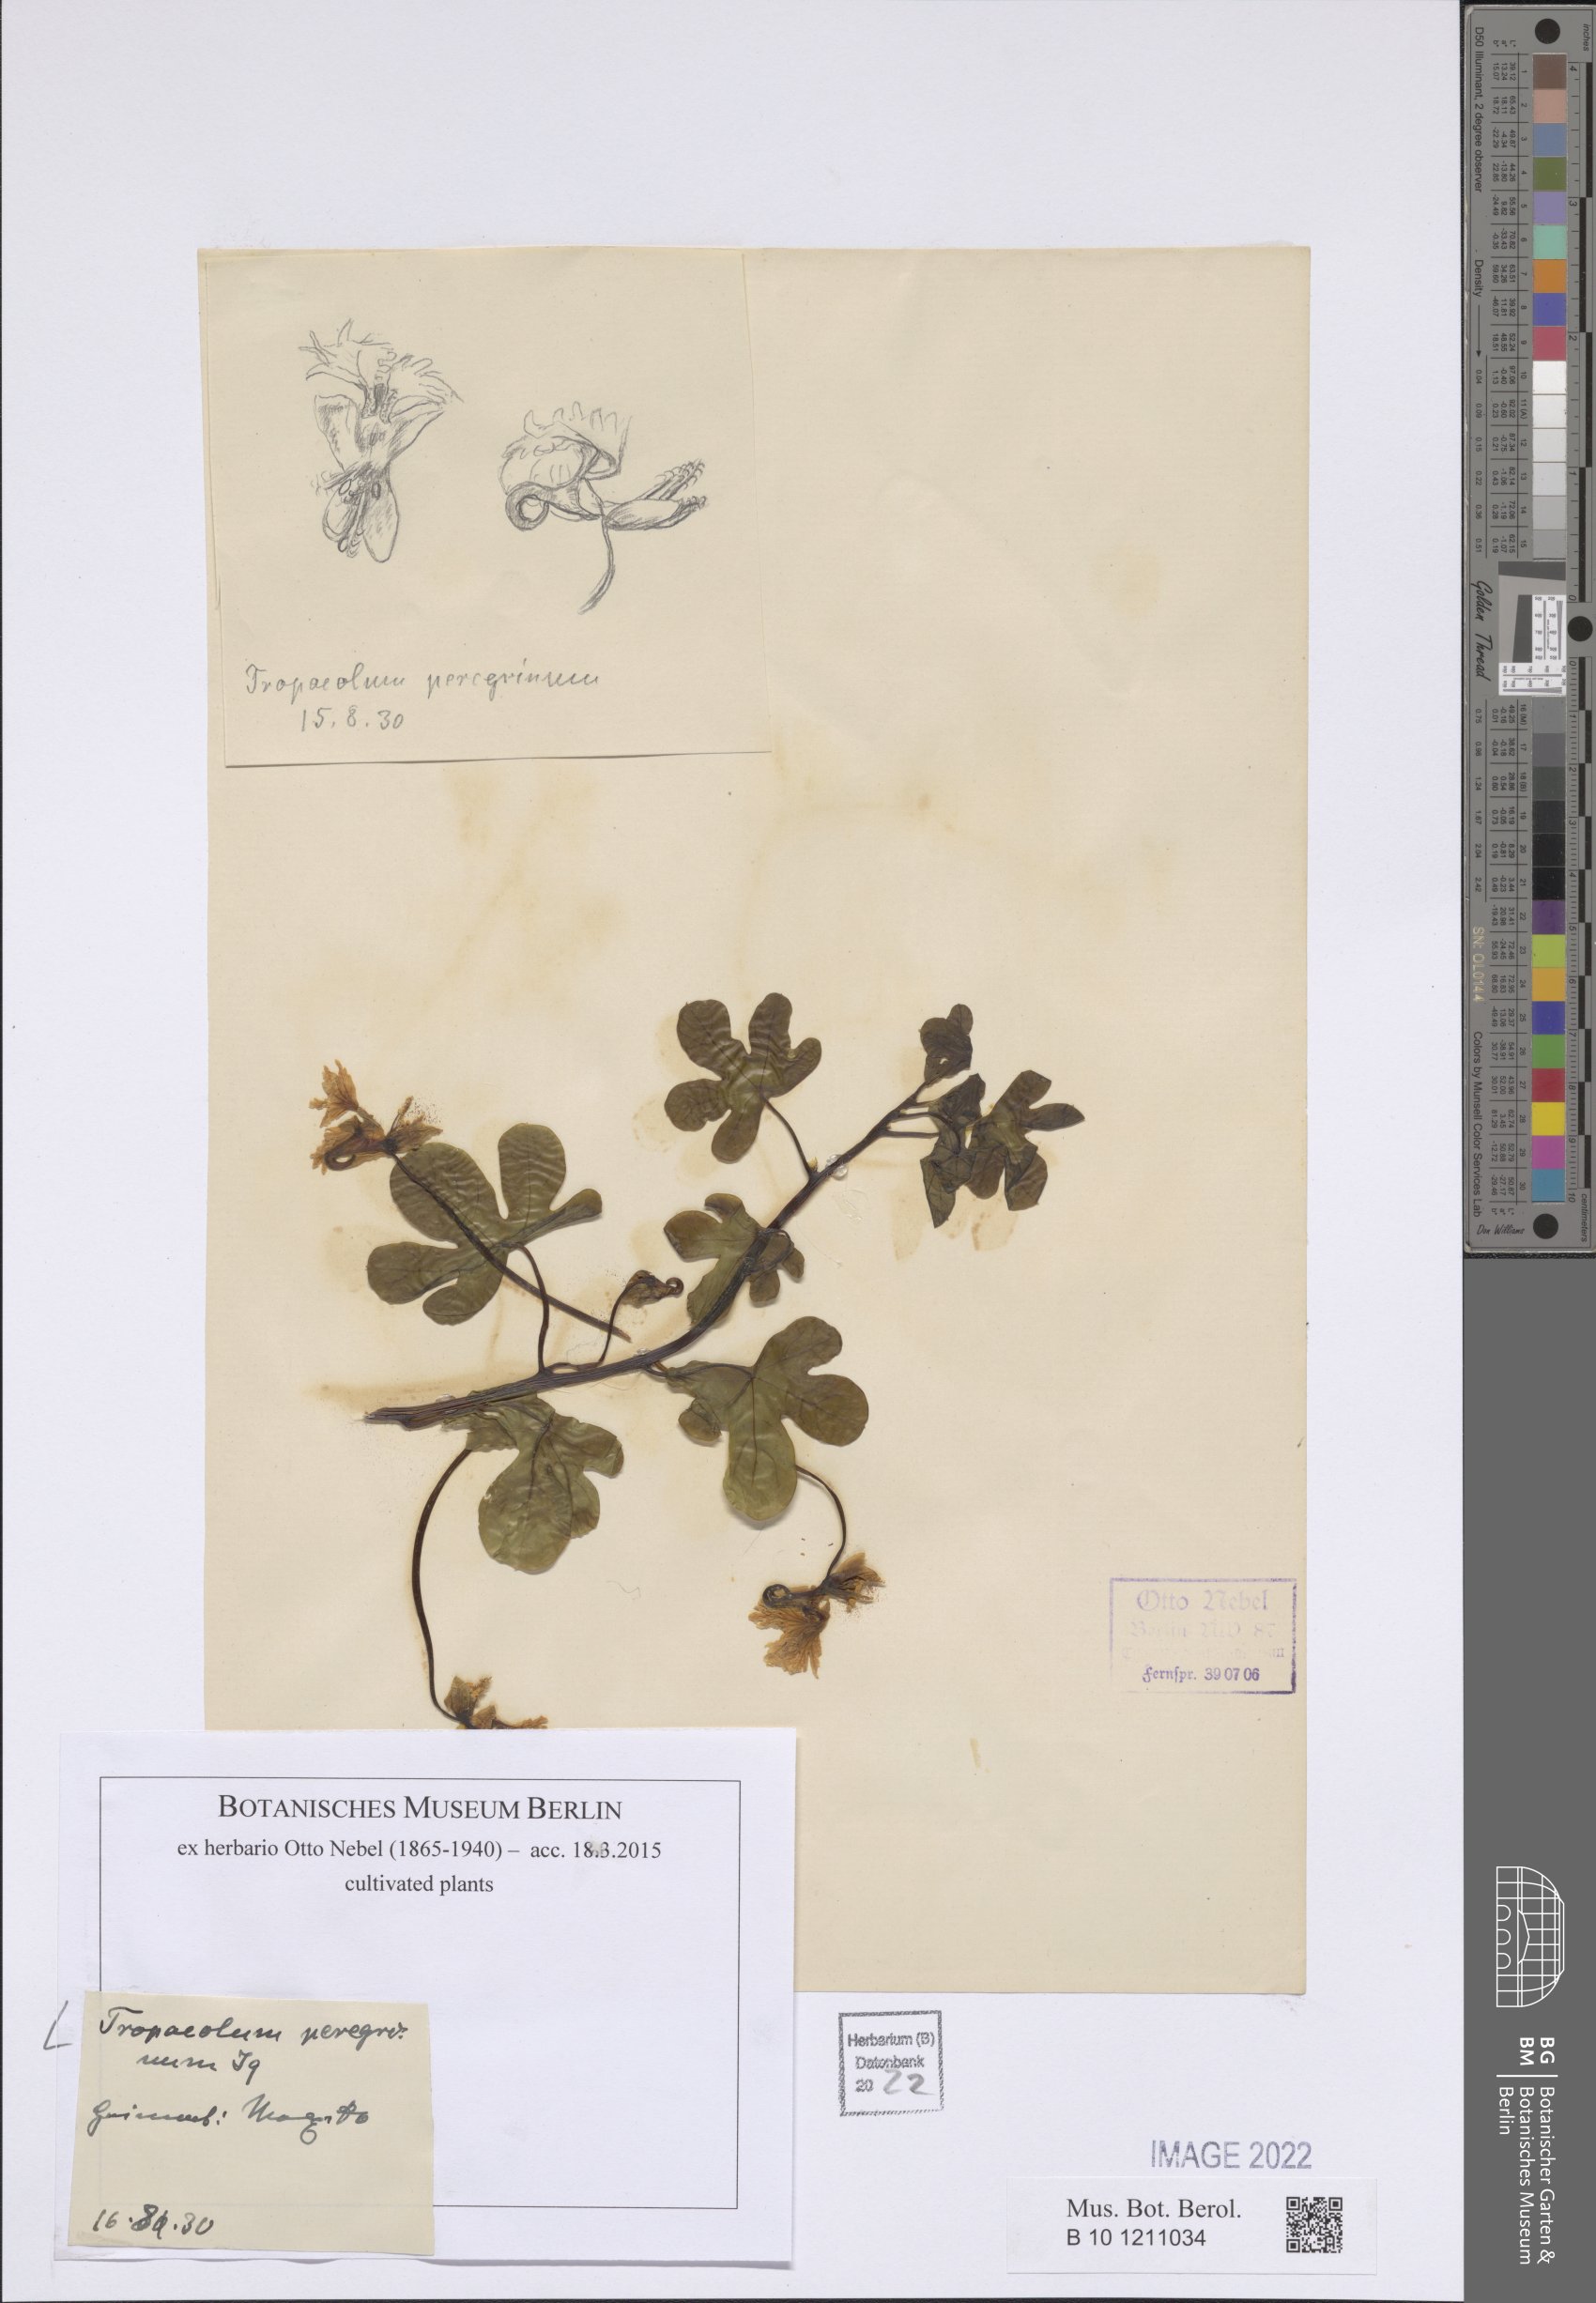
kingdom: Plantae
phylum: Tracheophyta
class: Magnoliopsida
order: Brassicales
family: Tropaeolaceae
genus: Tropaeolum
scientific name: Tropaeolum peregrinum
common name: Canary-creeper
